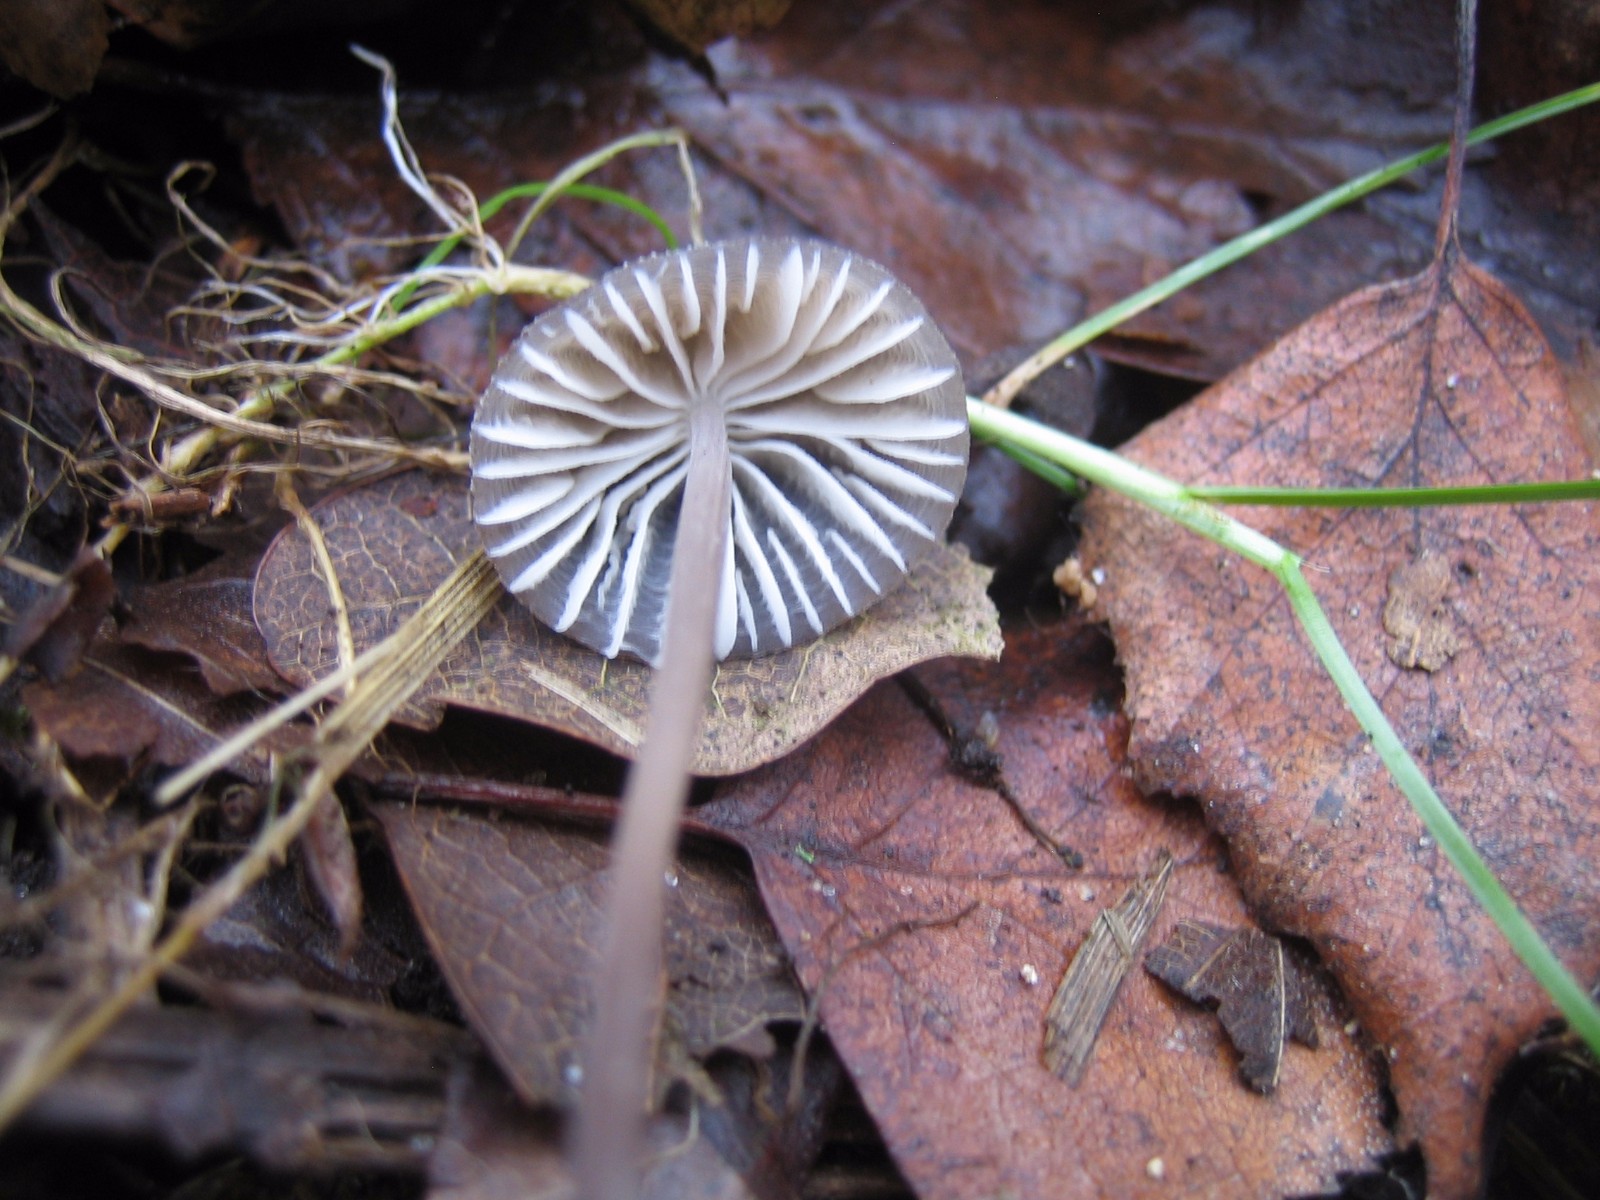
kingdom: Fungi
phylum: Basidiomycota
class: Agaricomycetes
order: Agaricales
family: Mycenaceae
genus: Mycena
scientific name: Mycena
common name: huesvamp
